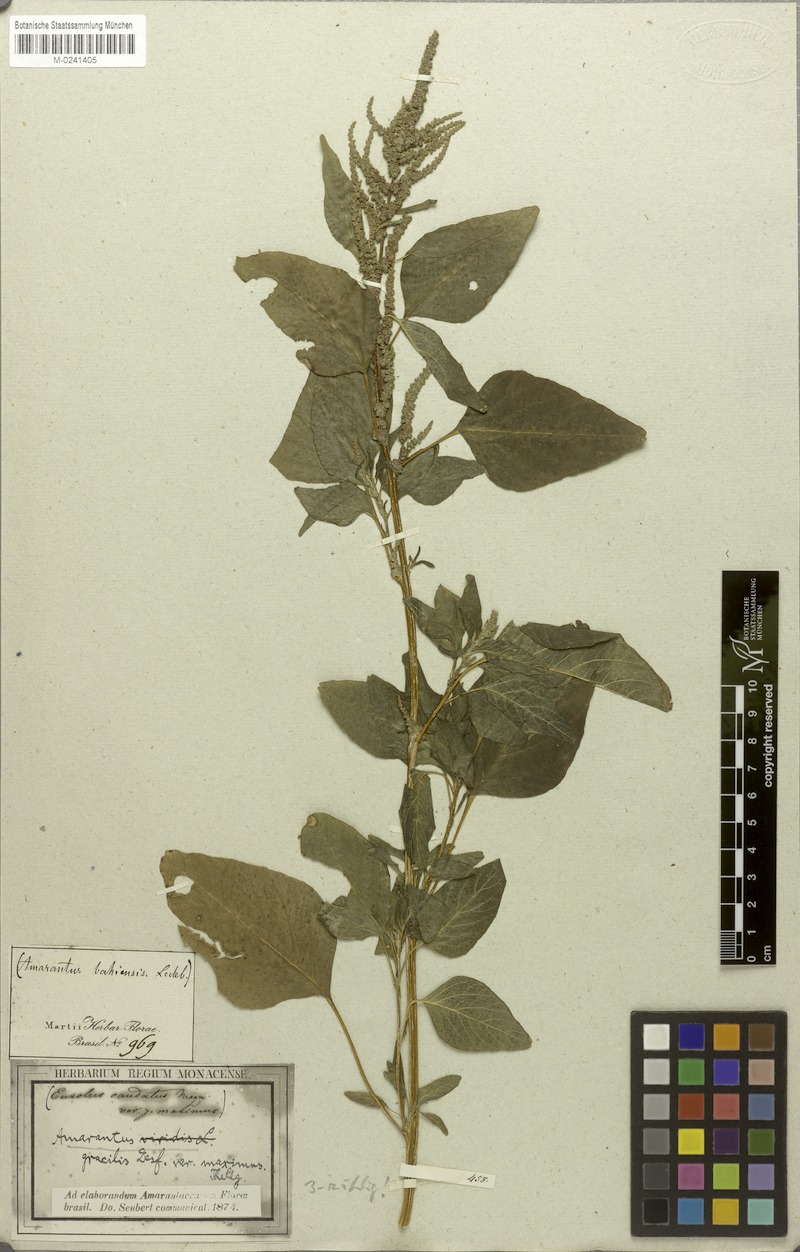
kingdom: Plantae
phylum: Tracheophyta
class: Magnoliopsida
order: Caryophyllales
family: Amaranthaceae
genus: Amaranthus
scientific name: Amaranthus caudatus
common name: Love-lies-bleeding
